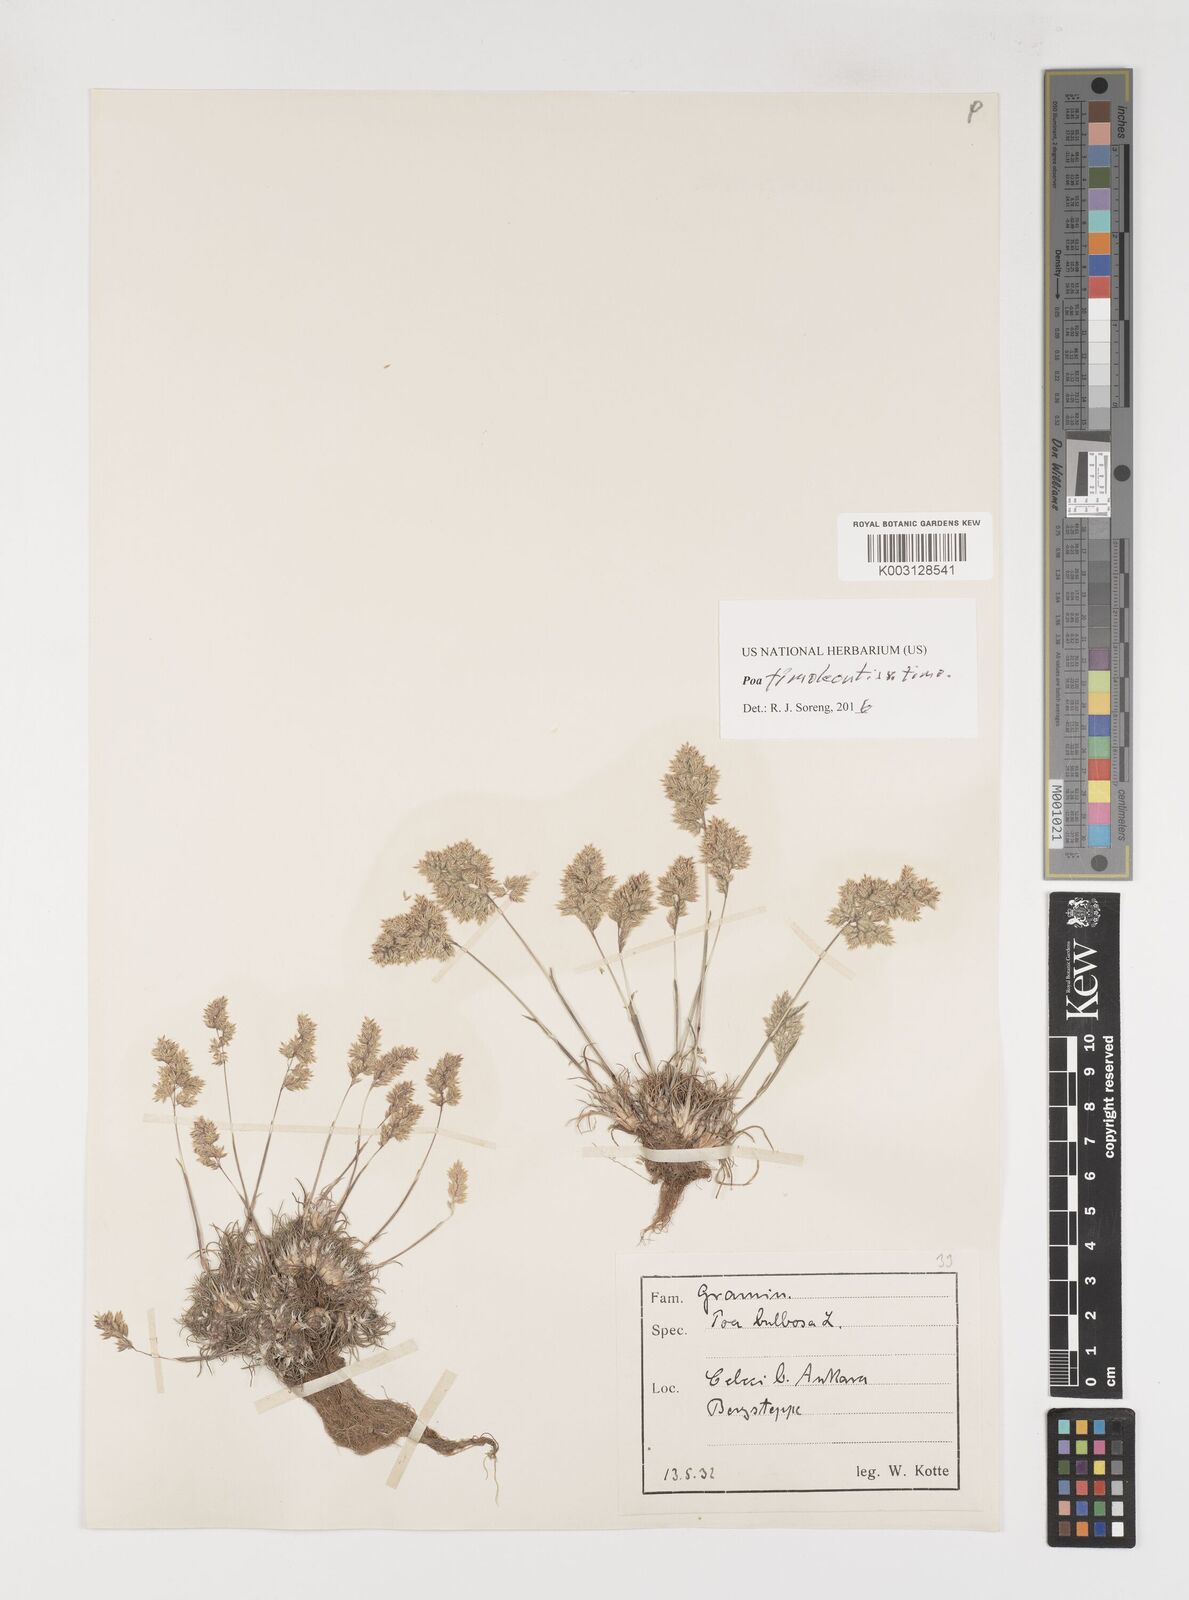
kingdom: Plantae
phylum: Tracheophyta
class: Liliopsida
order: Poales
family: Poaceae
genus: Poa
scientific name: Poa timoleontis
